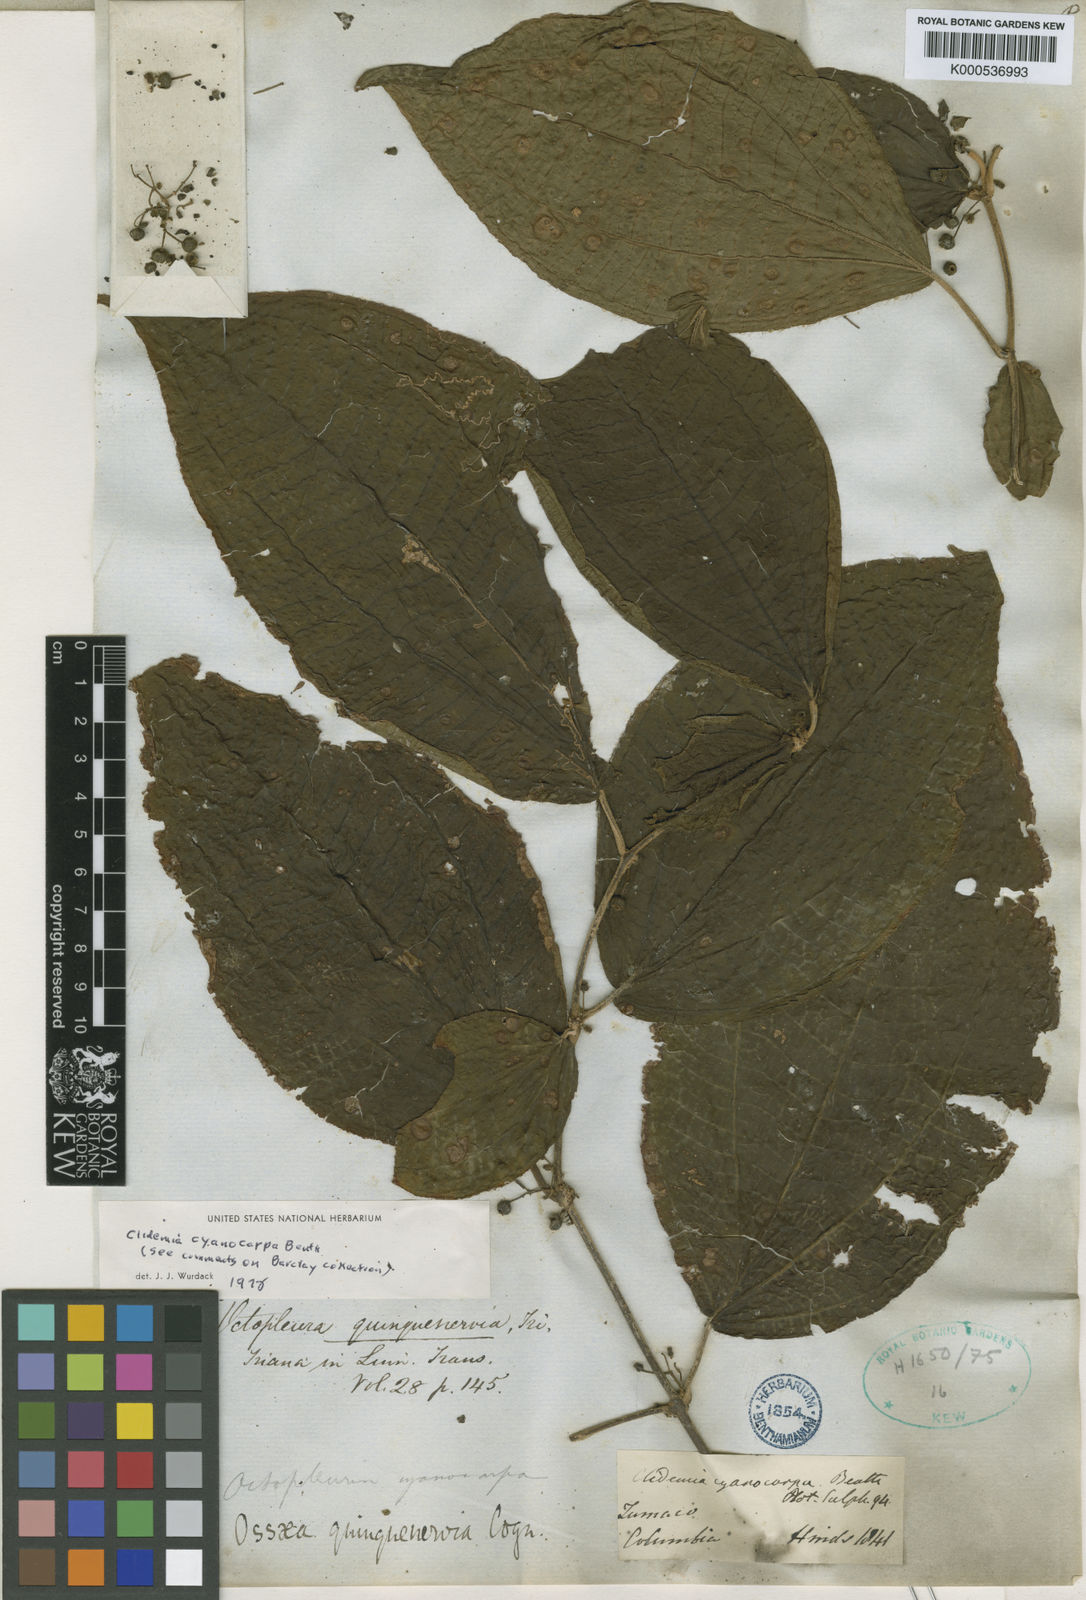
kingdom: Plantae
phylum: Tracheophyta
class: Magnoliopsida
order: Myrtales
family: Melastomataceae
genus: Miconia
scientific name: Miconia atropurpurea
